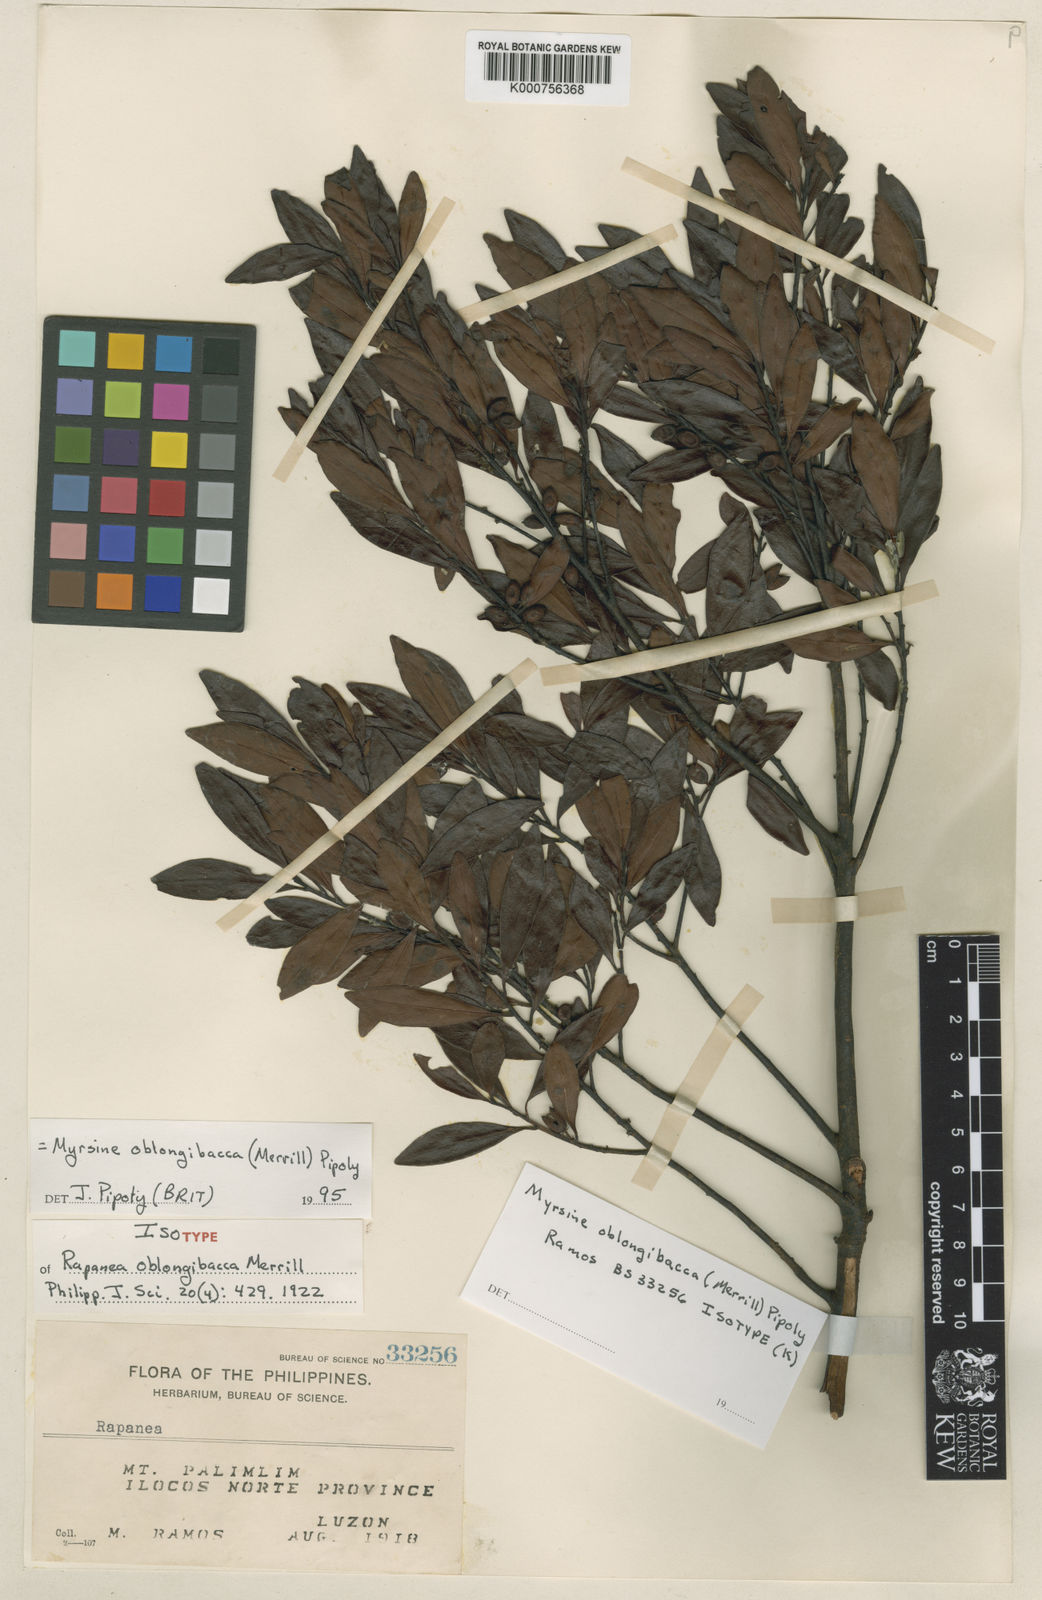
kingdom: Plantae
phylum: Tracheophyta
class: Magnoliopsida
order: Ericales
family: Primulaceae
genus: Myrsine
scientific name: Myrsine oblongibacca
